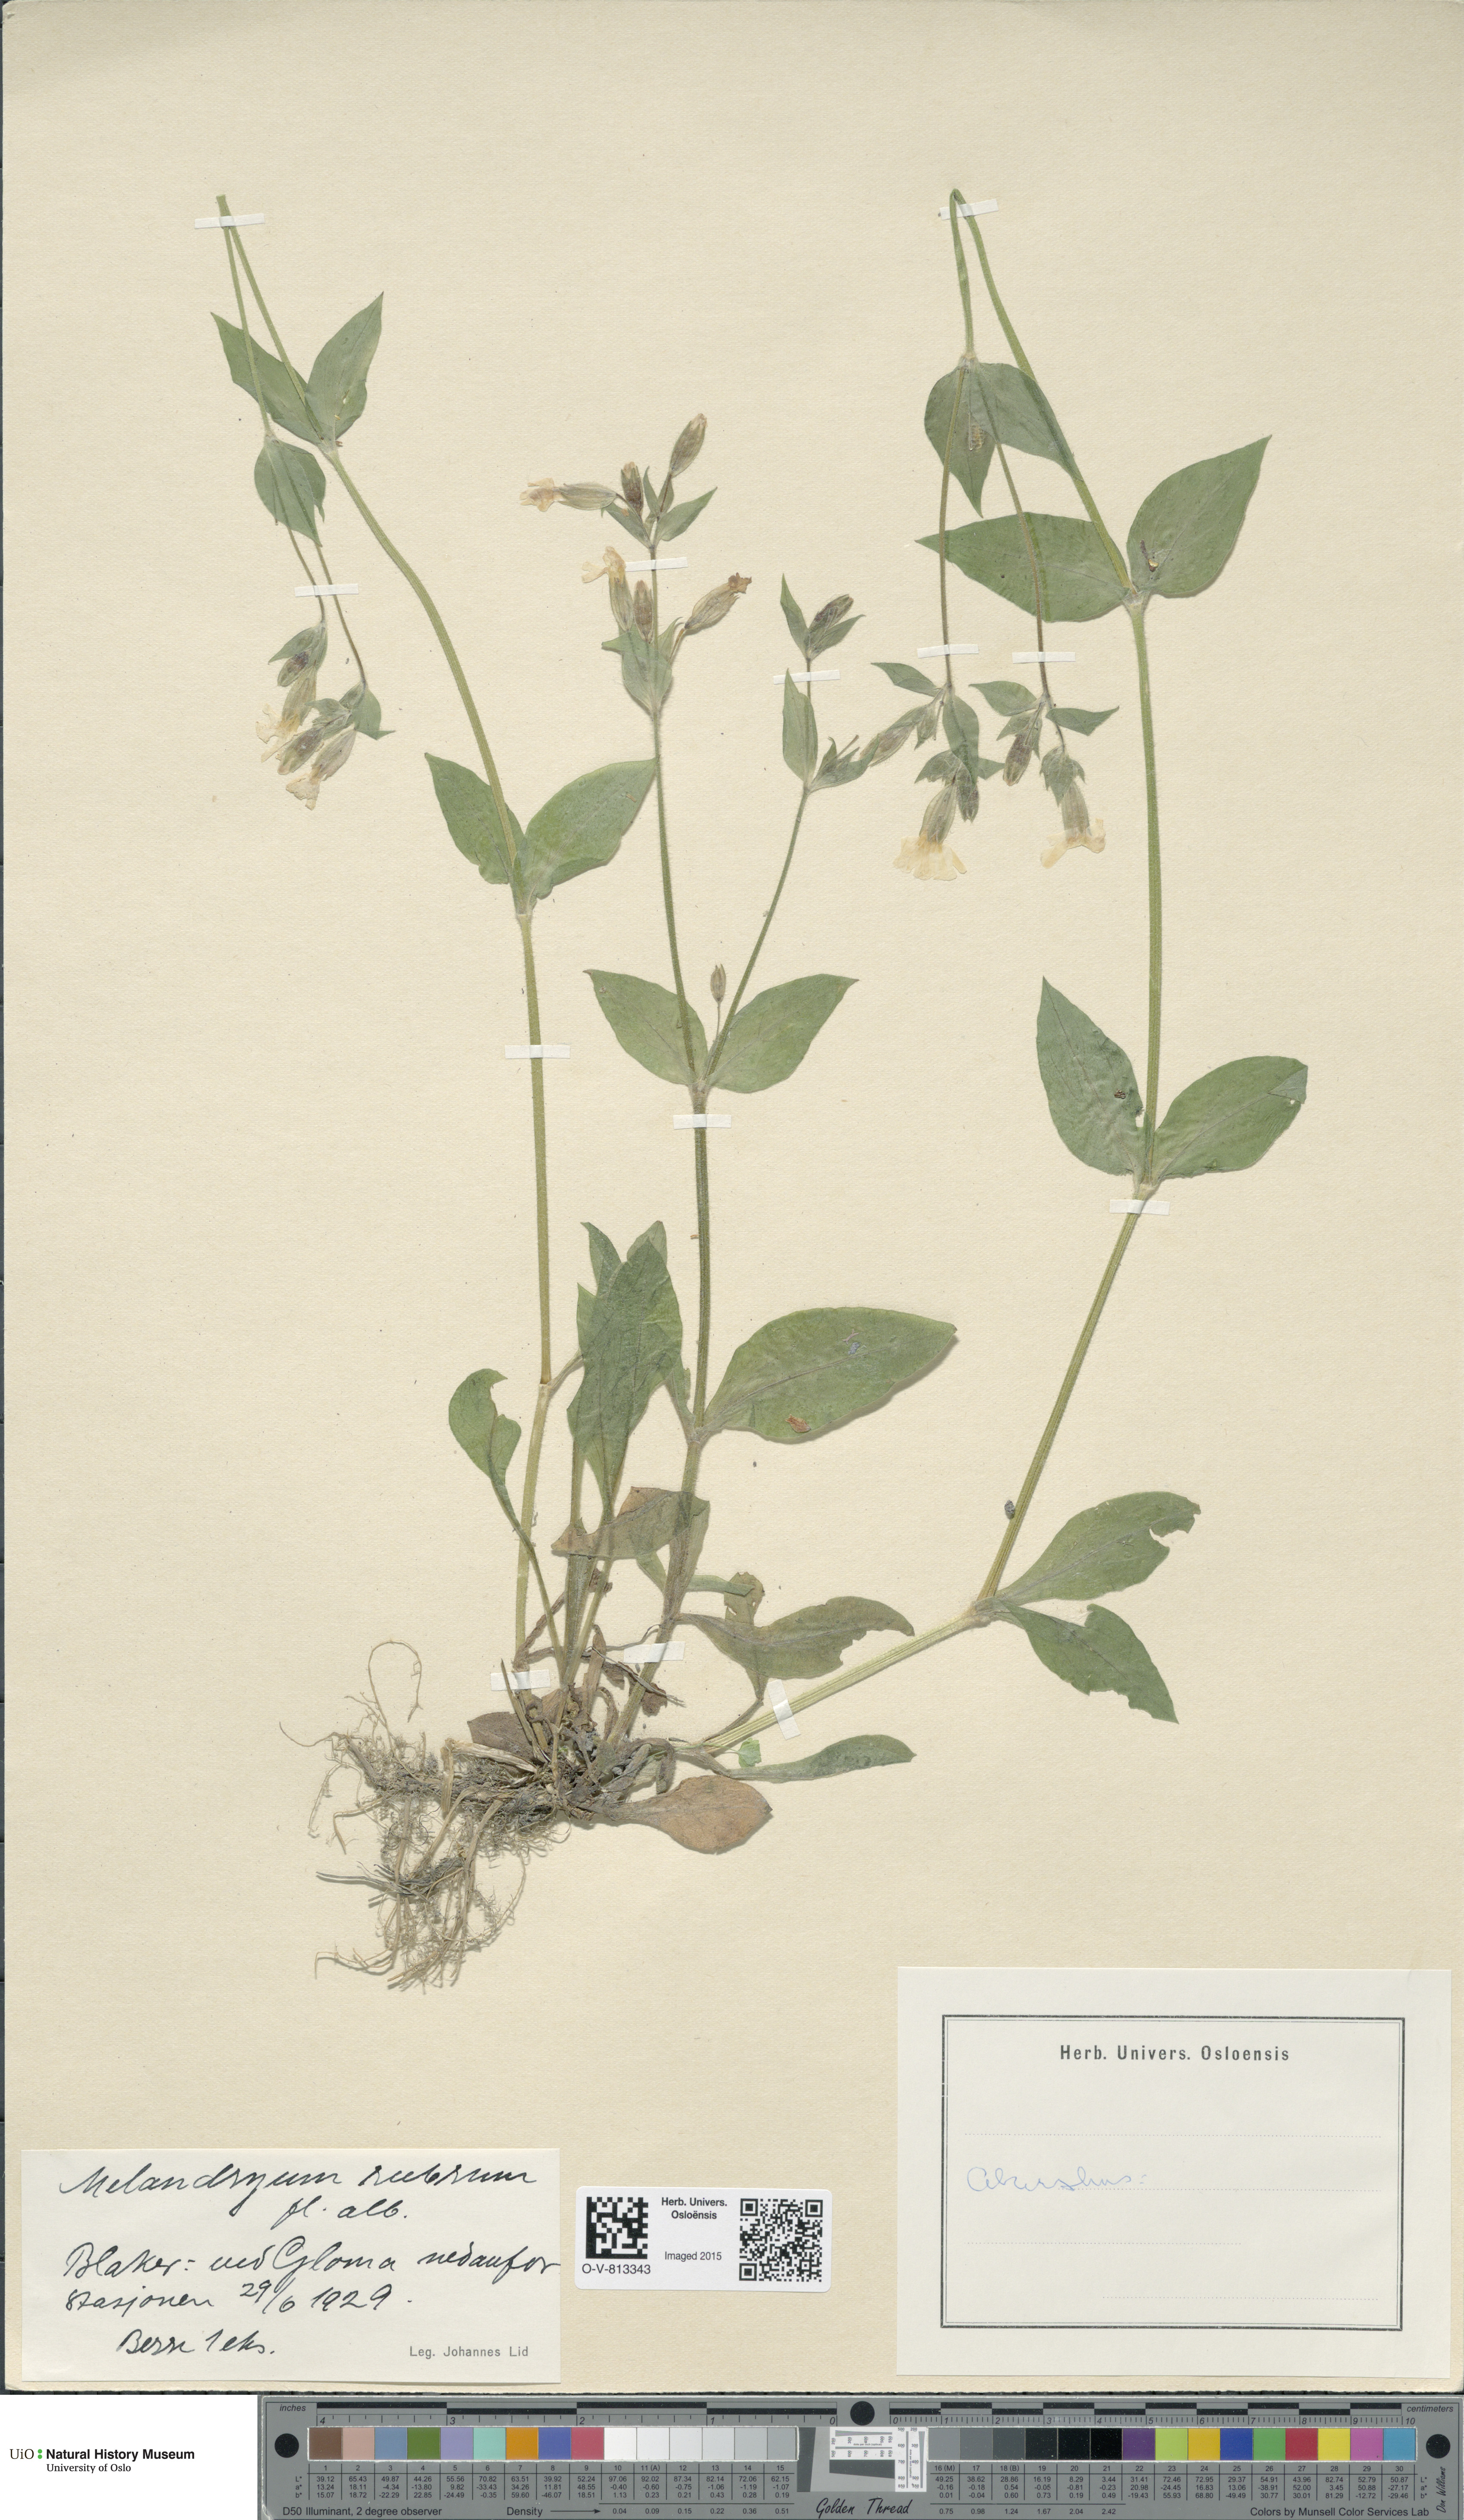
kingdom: Plantae
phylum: Tracheophyta
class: Magnoliopsida
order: Caryophyllales
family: Caryophyllaceae
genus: Silene
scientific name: Silene dioica
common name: Red campion
